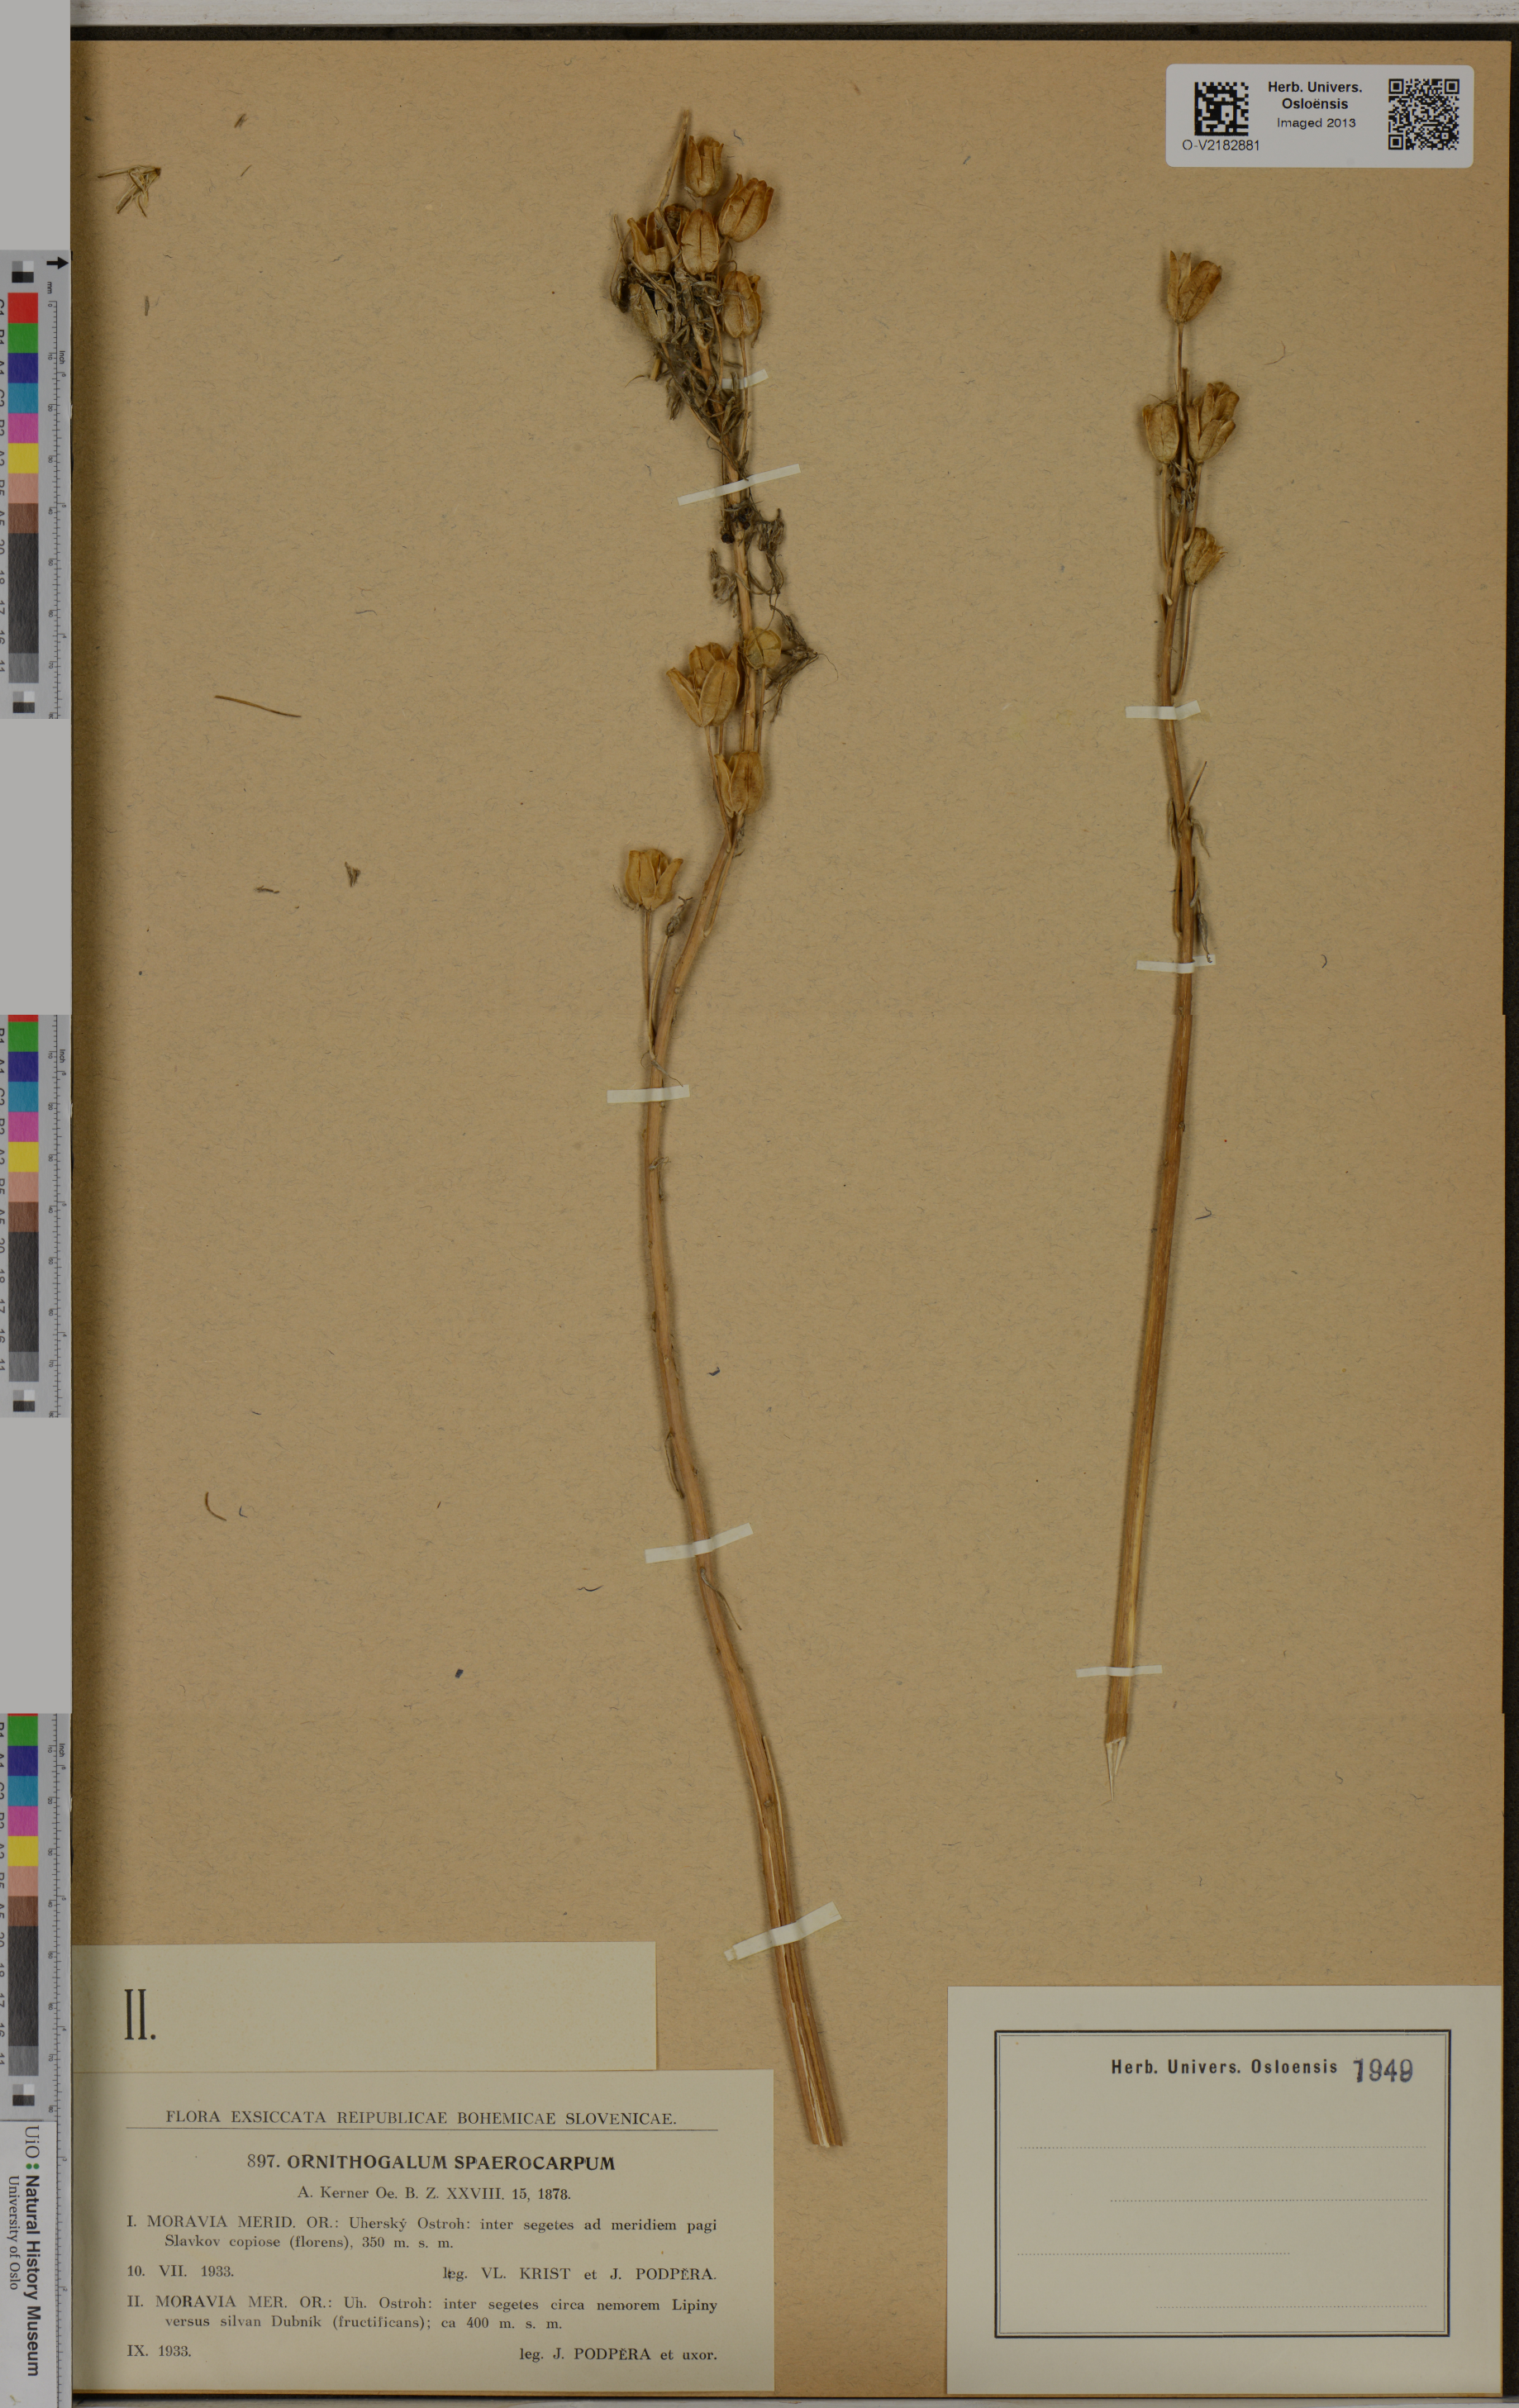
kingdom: Plantae
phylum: Tracheophyta
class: Liliopsida
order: Asparagales
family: Asparagaceae
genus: Ornithogalum
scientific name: Ornithogalum
